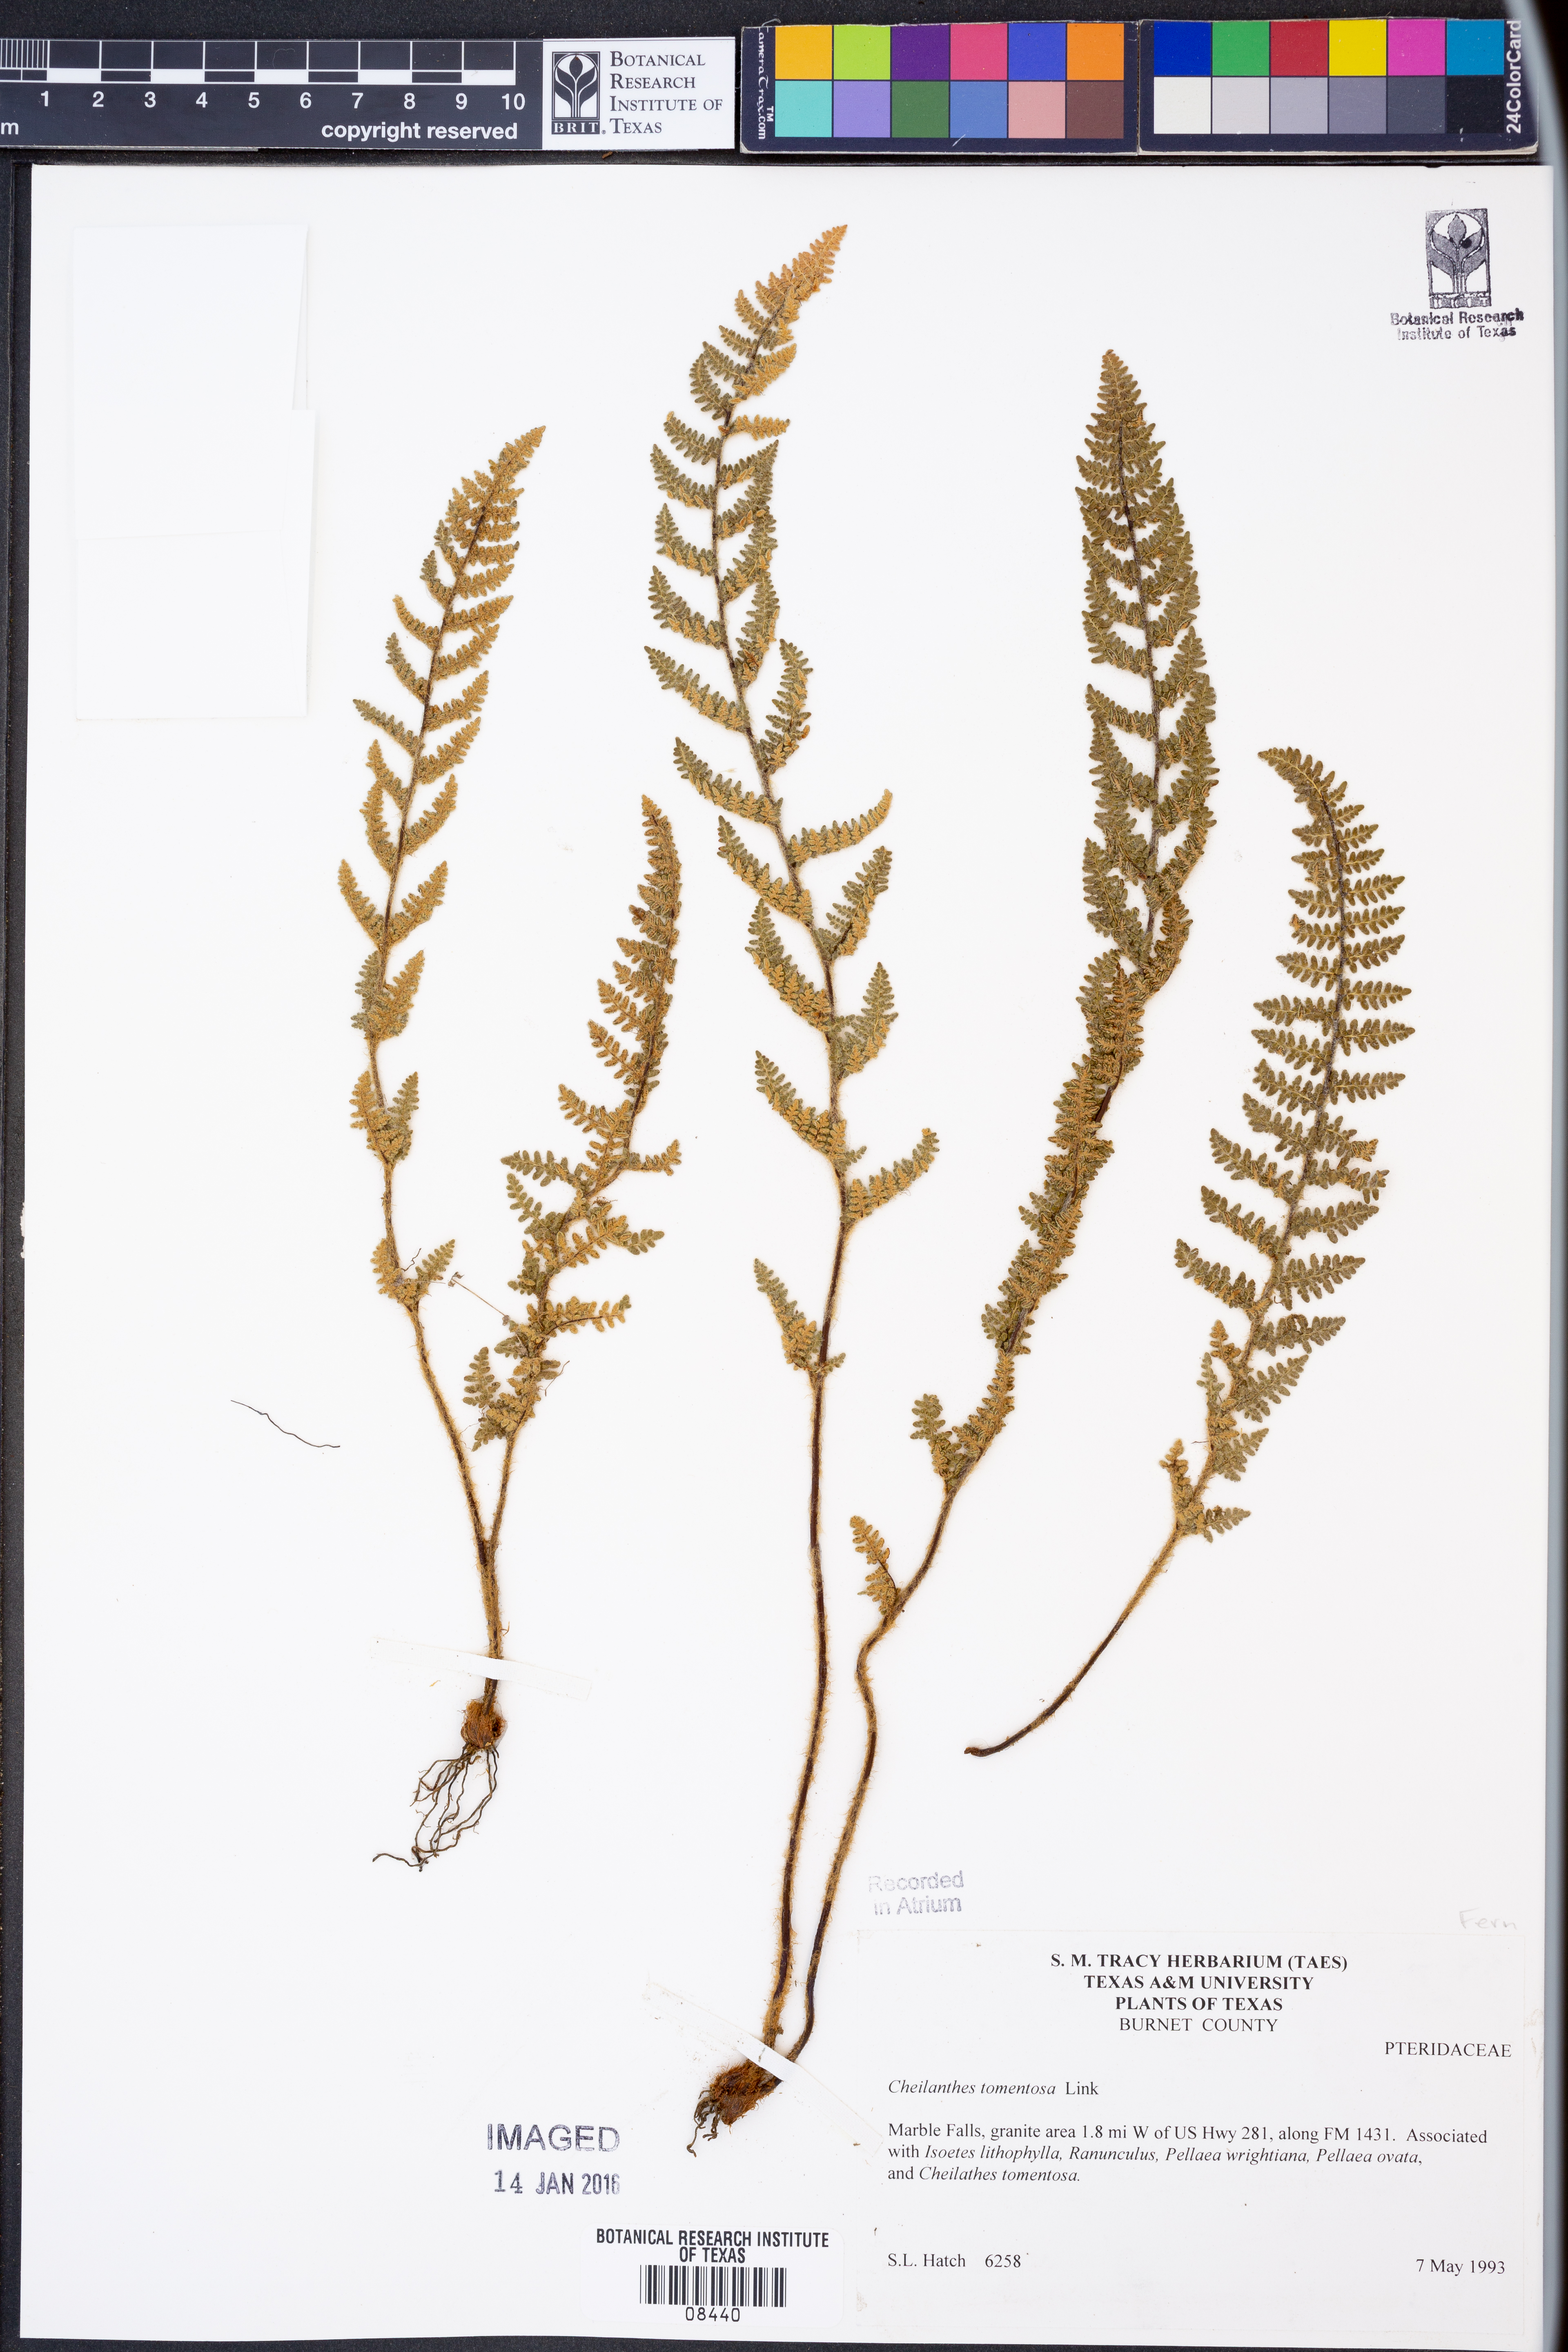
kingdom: Plantae
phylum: Tracheophyta
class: Polypodiopsida
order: Polypodiales
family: Pteridaceae
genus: Myriopteris
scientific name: Myriopteris tomentosa
